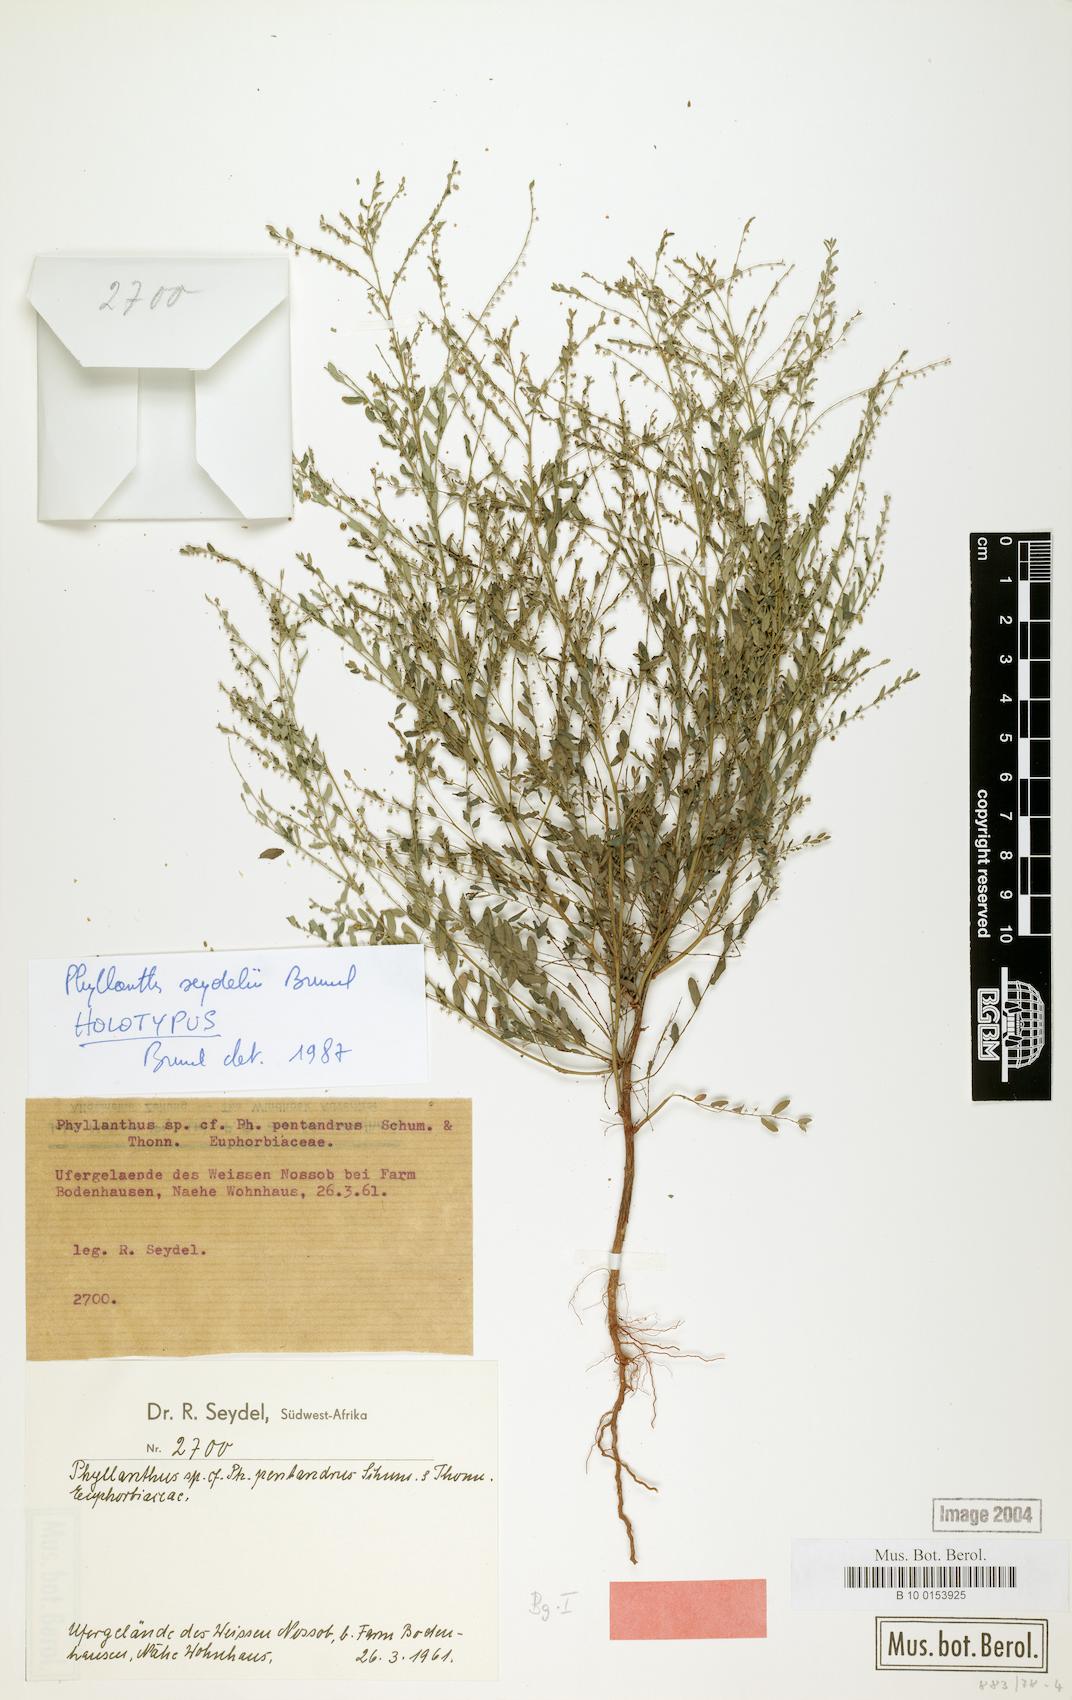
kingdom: Plantae
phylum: Tracheophyta
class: Magnoliopsida
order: Malpighiales
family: Phyllanthaceae
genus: Phyllanthus
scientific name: Phyllanthus parvulus
